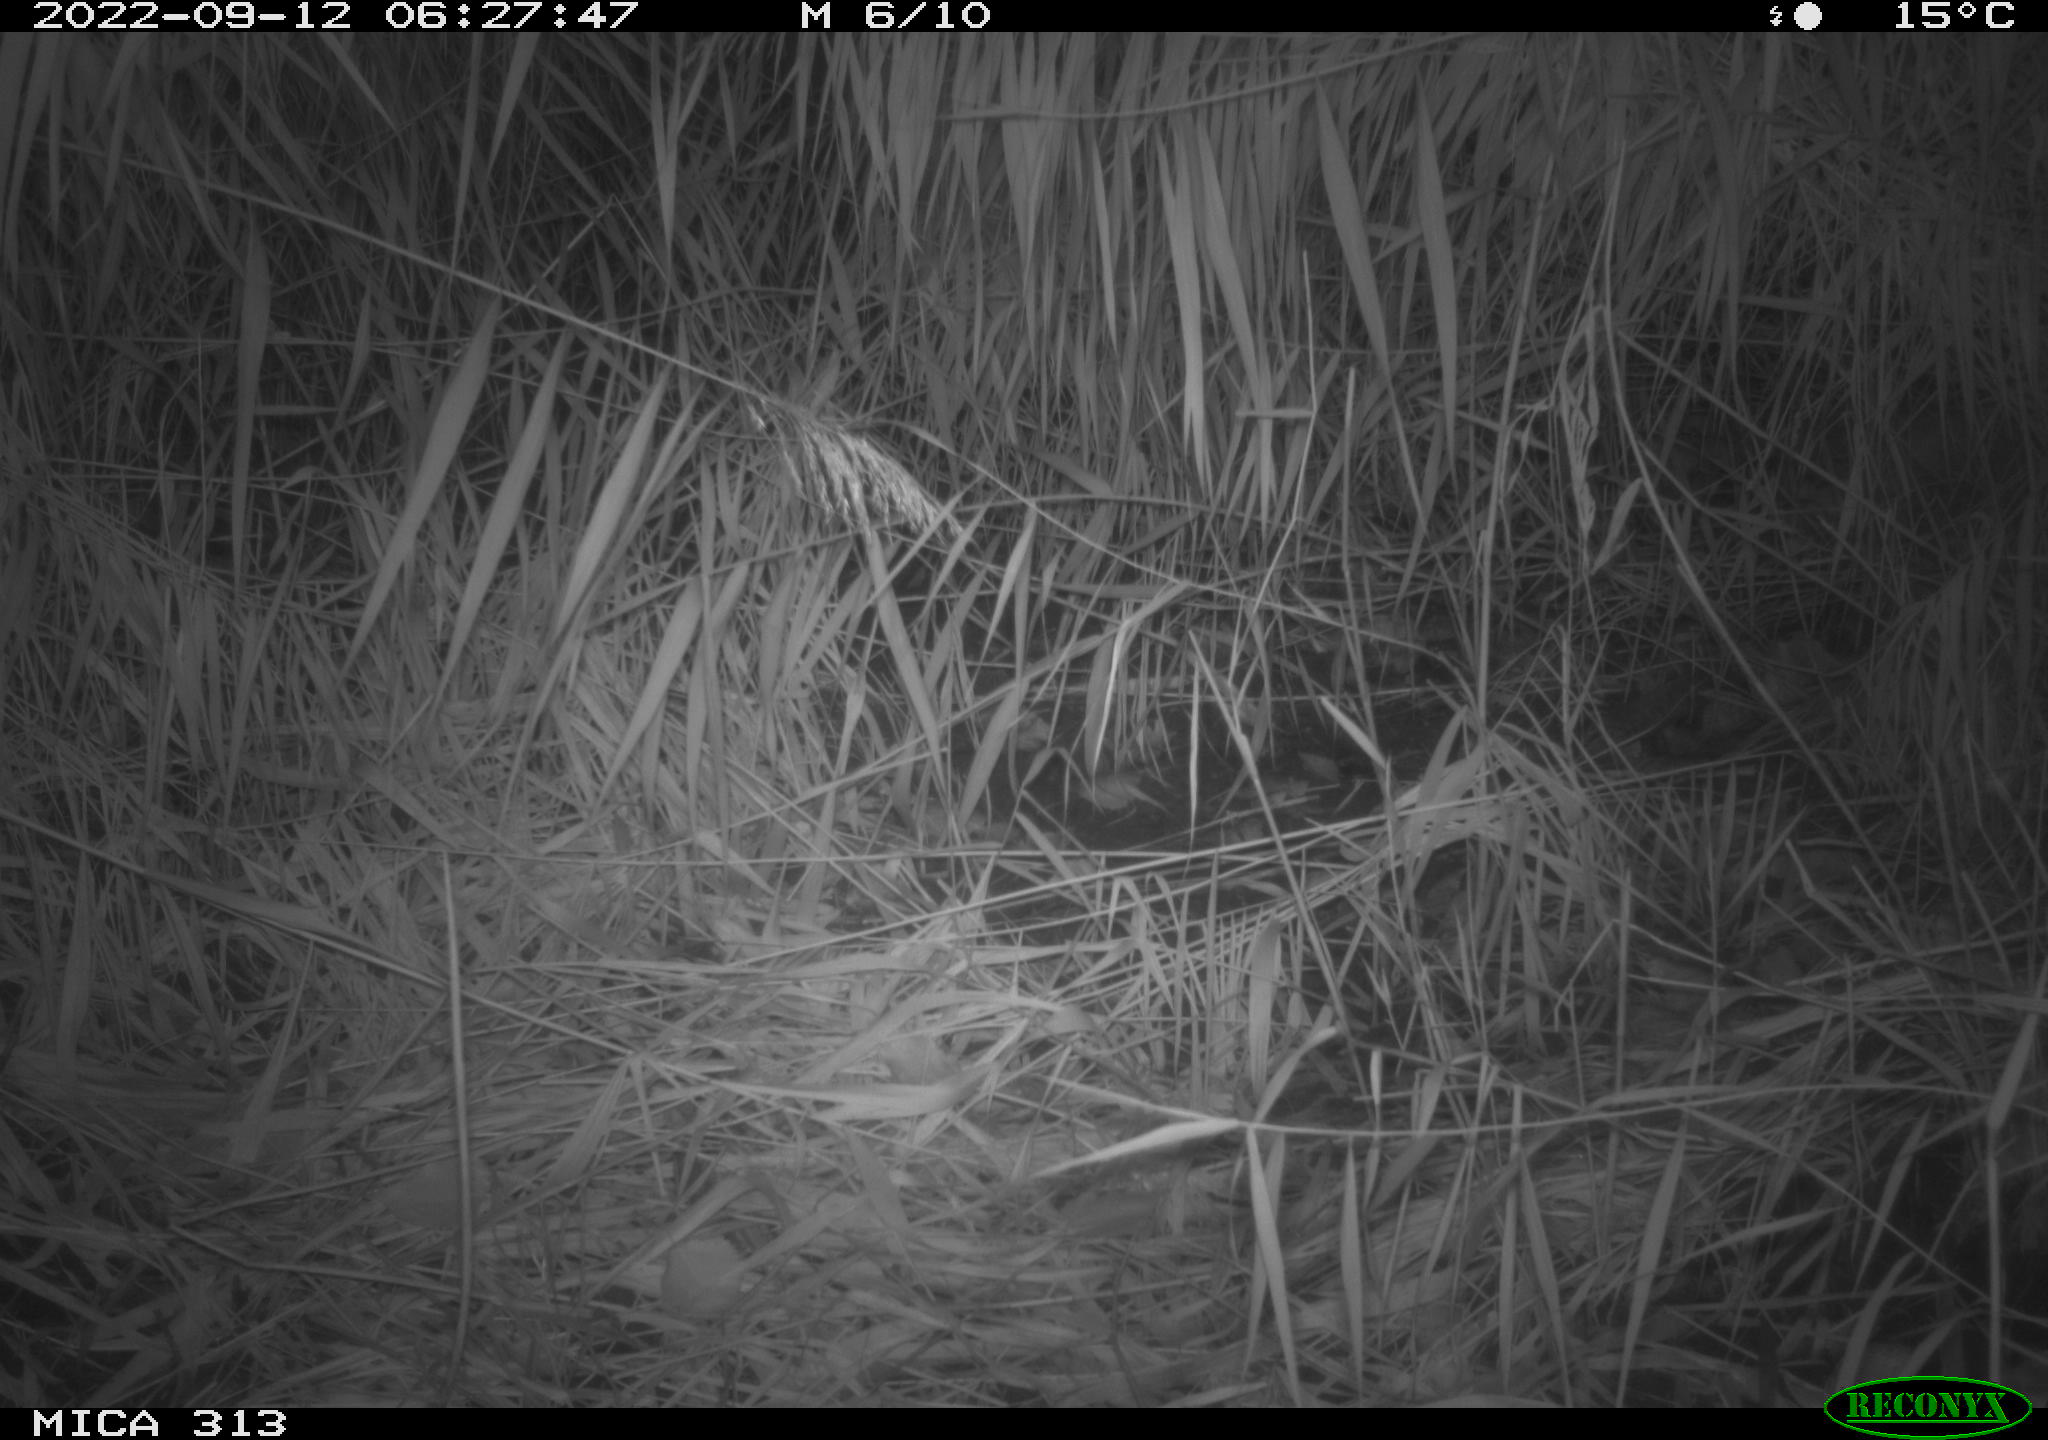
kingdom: Animalia
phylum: Chordata
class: Mammalia
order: Rodentia
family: Muridae
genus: Rattus
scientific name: Rattus norvegicus
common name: Brown rat
